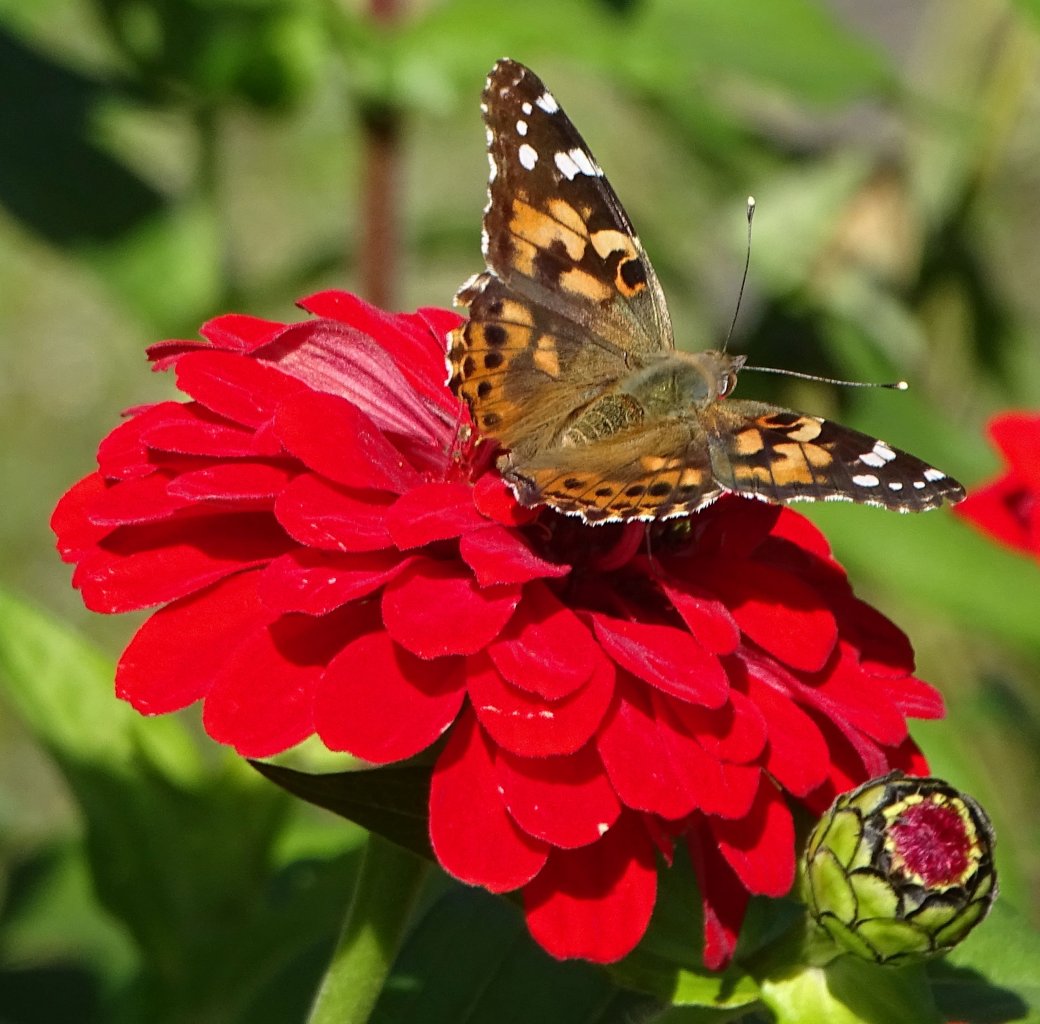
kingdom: Animalia
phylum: Arthropoda
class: Insecta
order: Lepidoptera
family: Nymphalidae
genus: Vanessa
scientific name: Vanessa cardui
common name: Painted Lady
